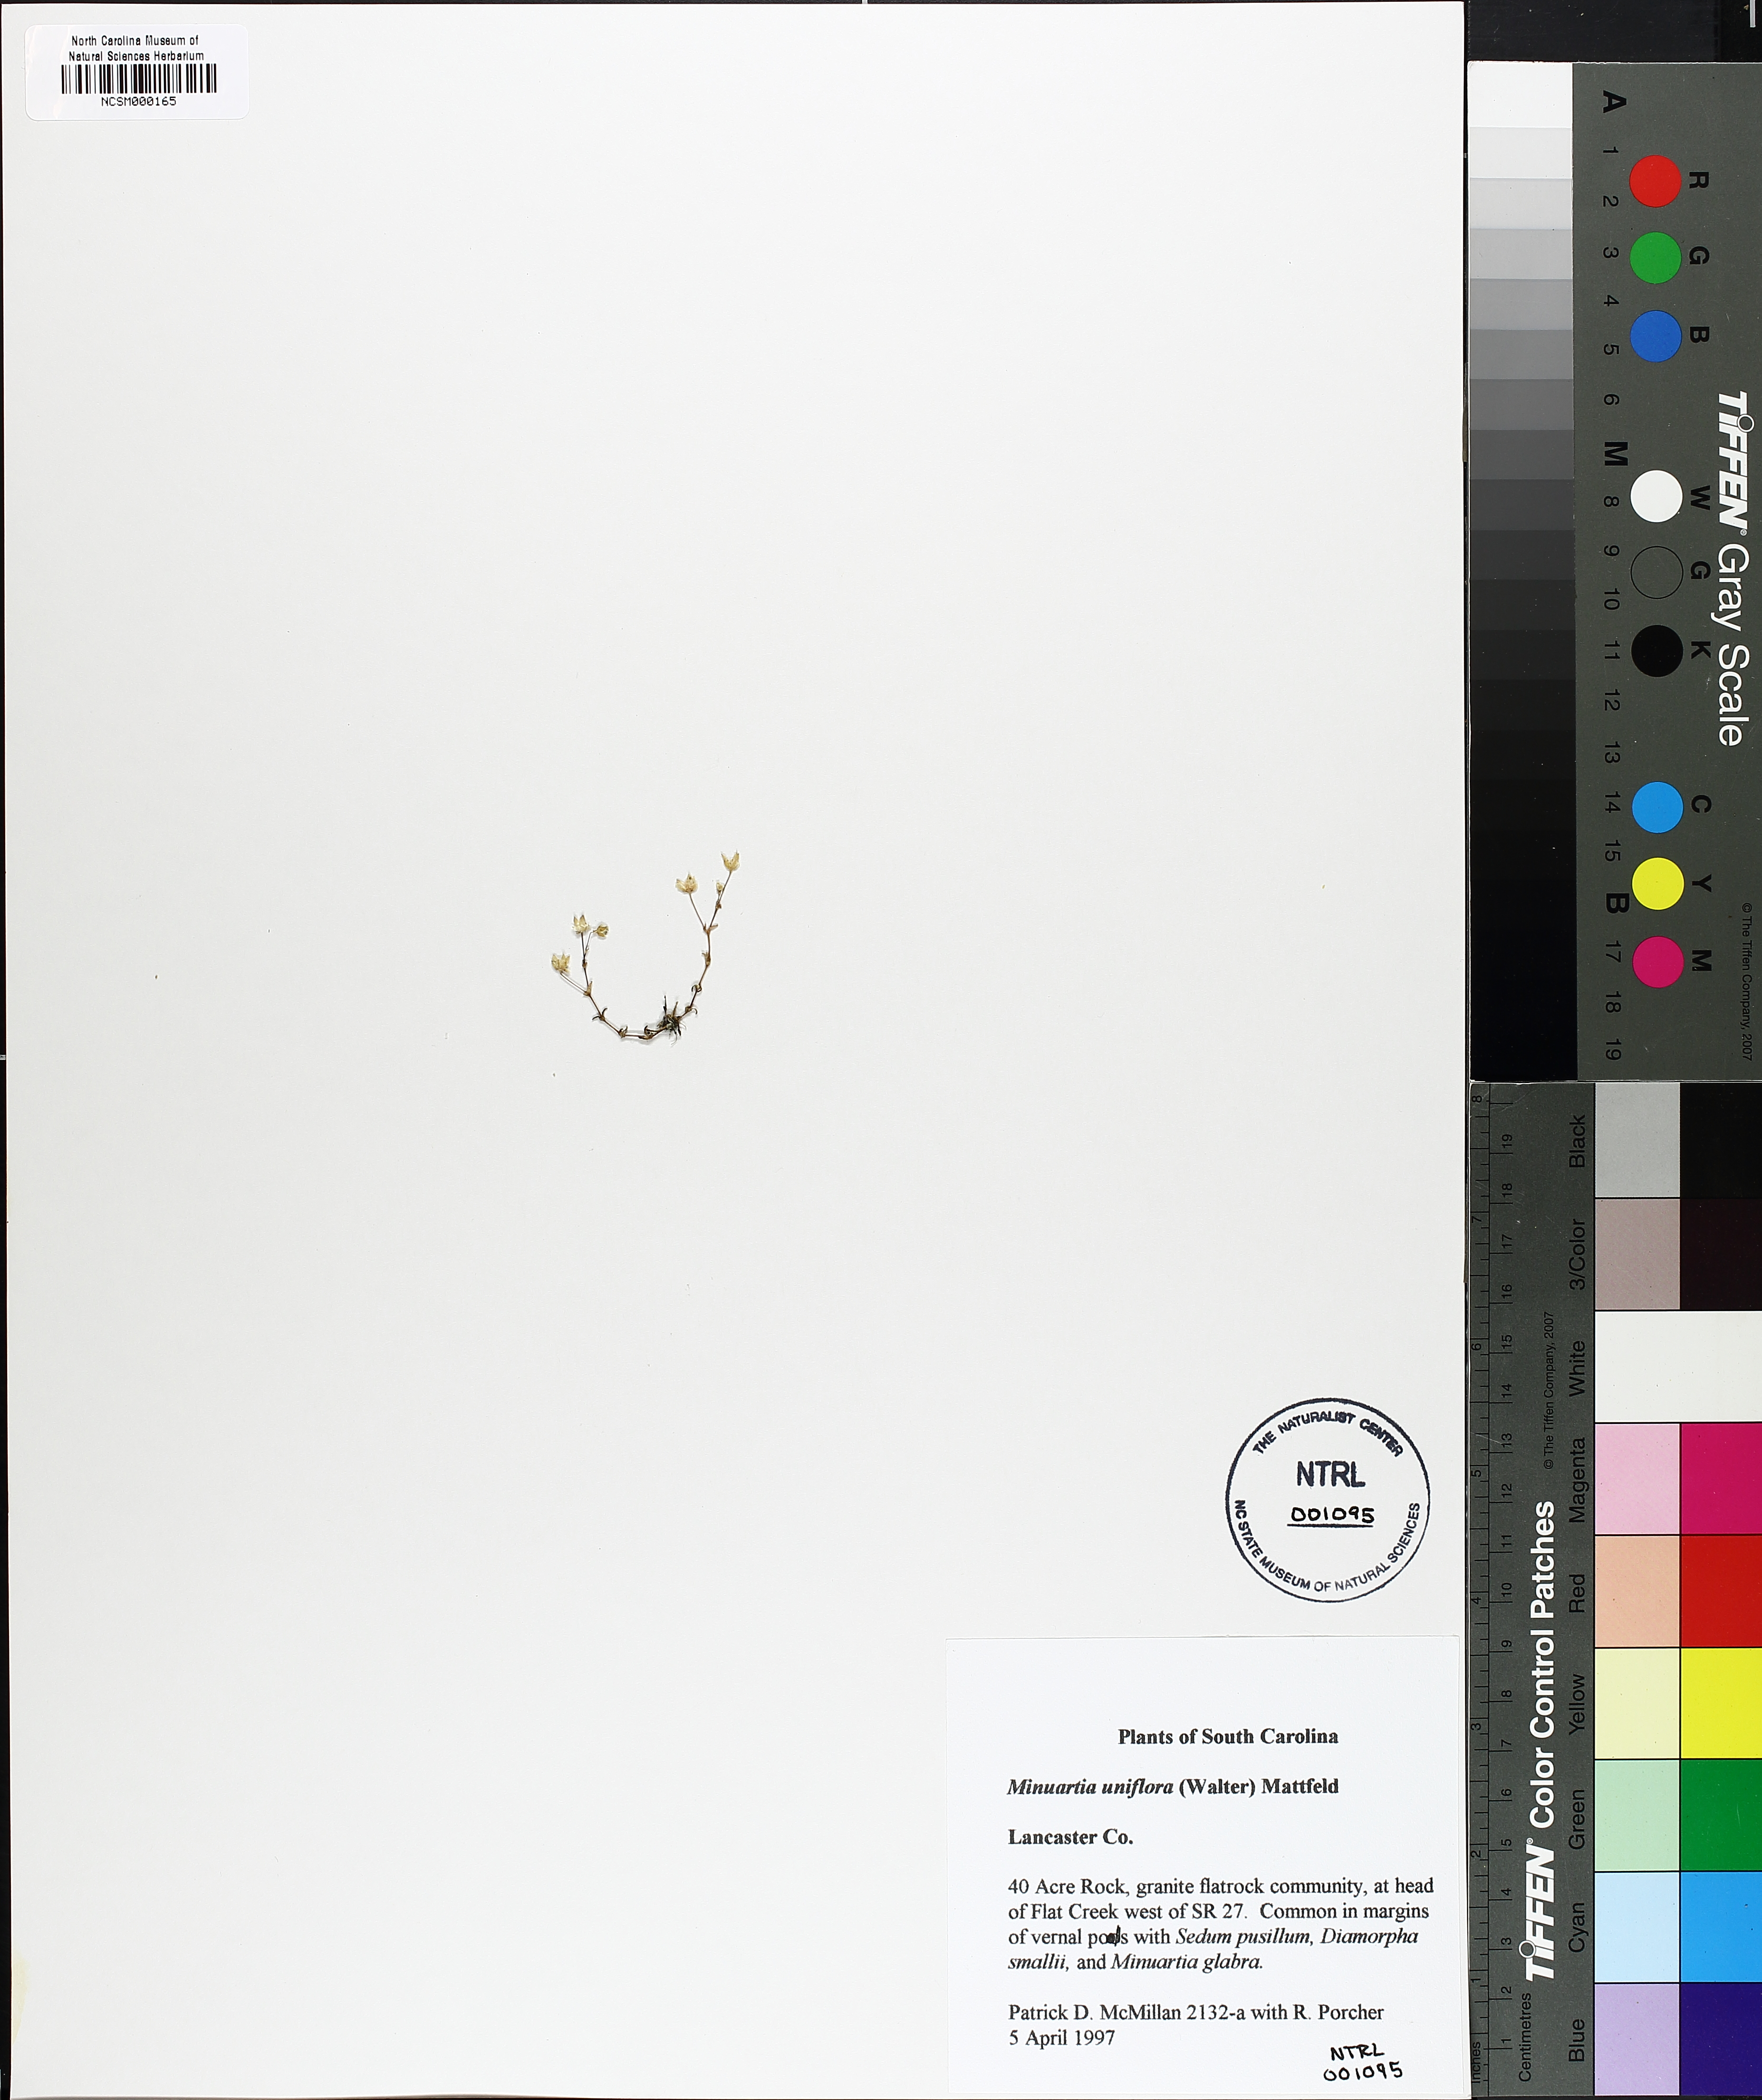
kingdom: Plantae
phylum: Tracheophyta
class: Magnoliopsida
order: Caryophyllales
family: Caryophyllaceae
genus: Geocarpon
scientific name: Geocarpon uniflorum
